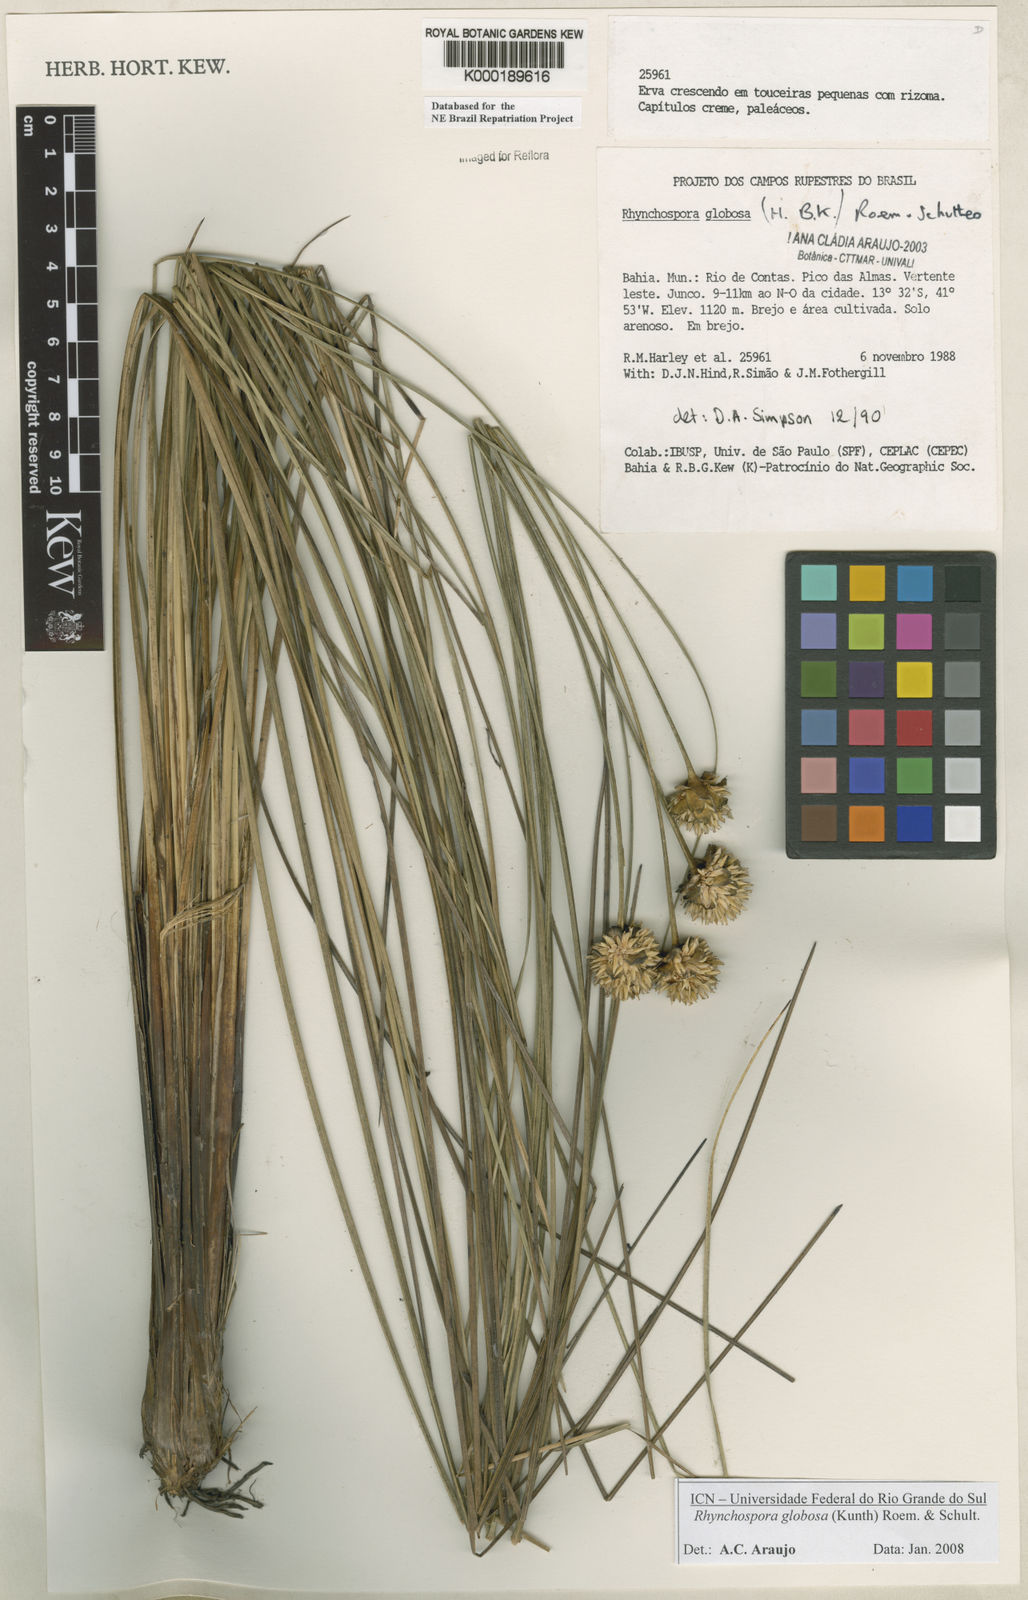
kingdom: Plantae
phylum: Tracheophyta
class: Liliopsida
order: Poales
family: Cyperaceae
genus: Rhynchospora
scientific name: Rhynchospora globosa
